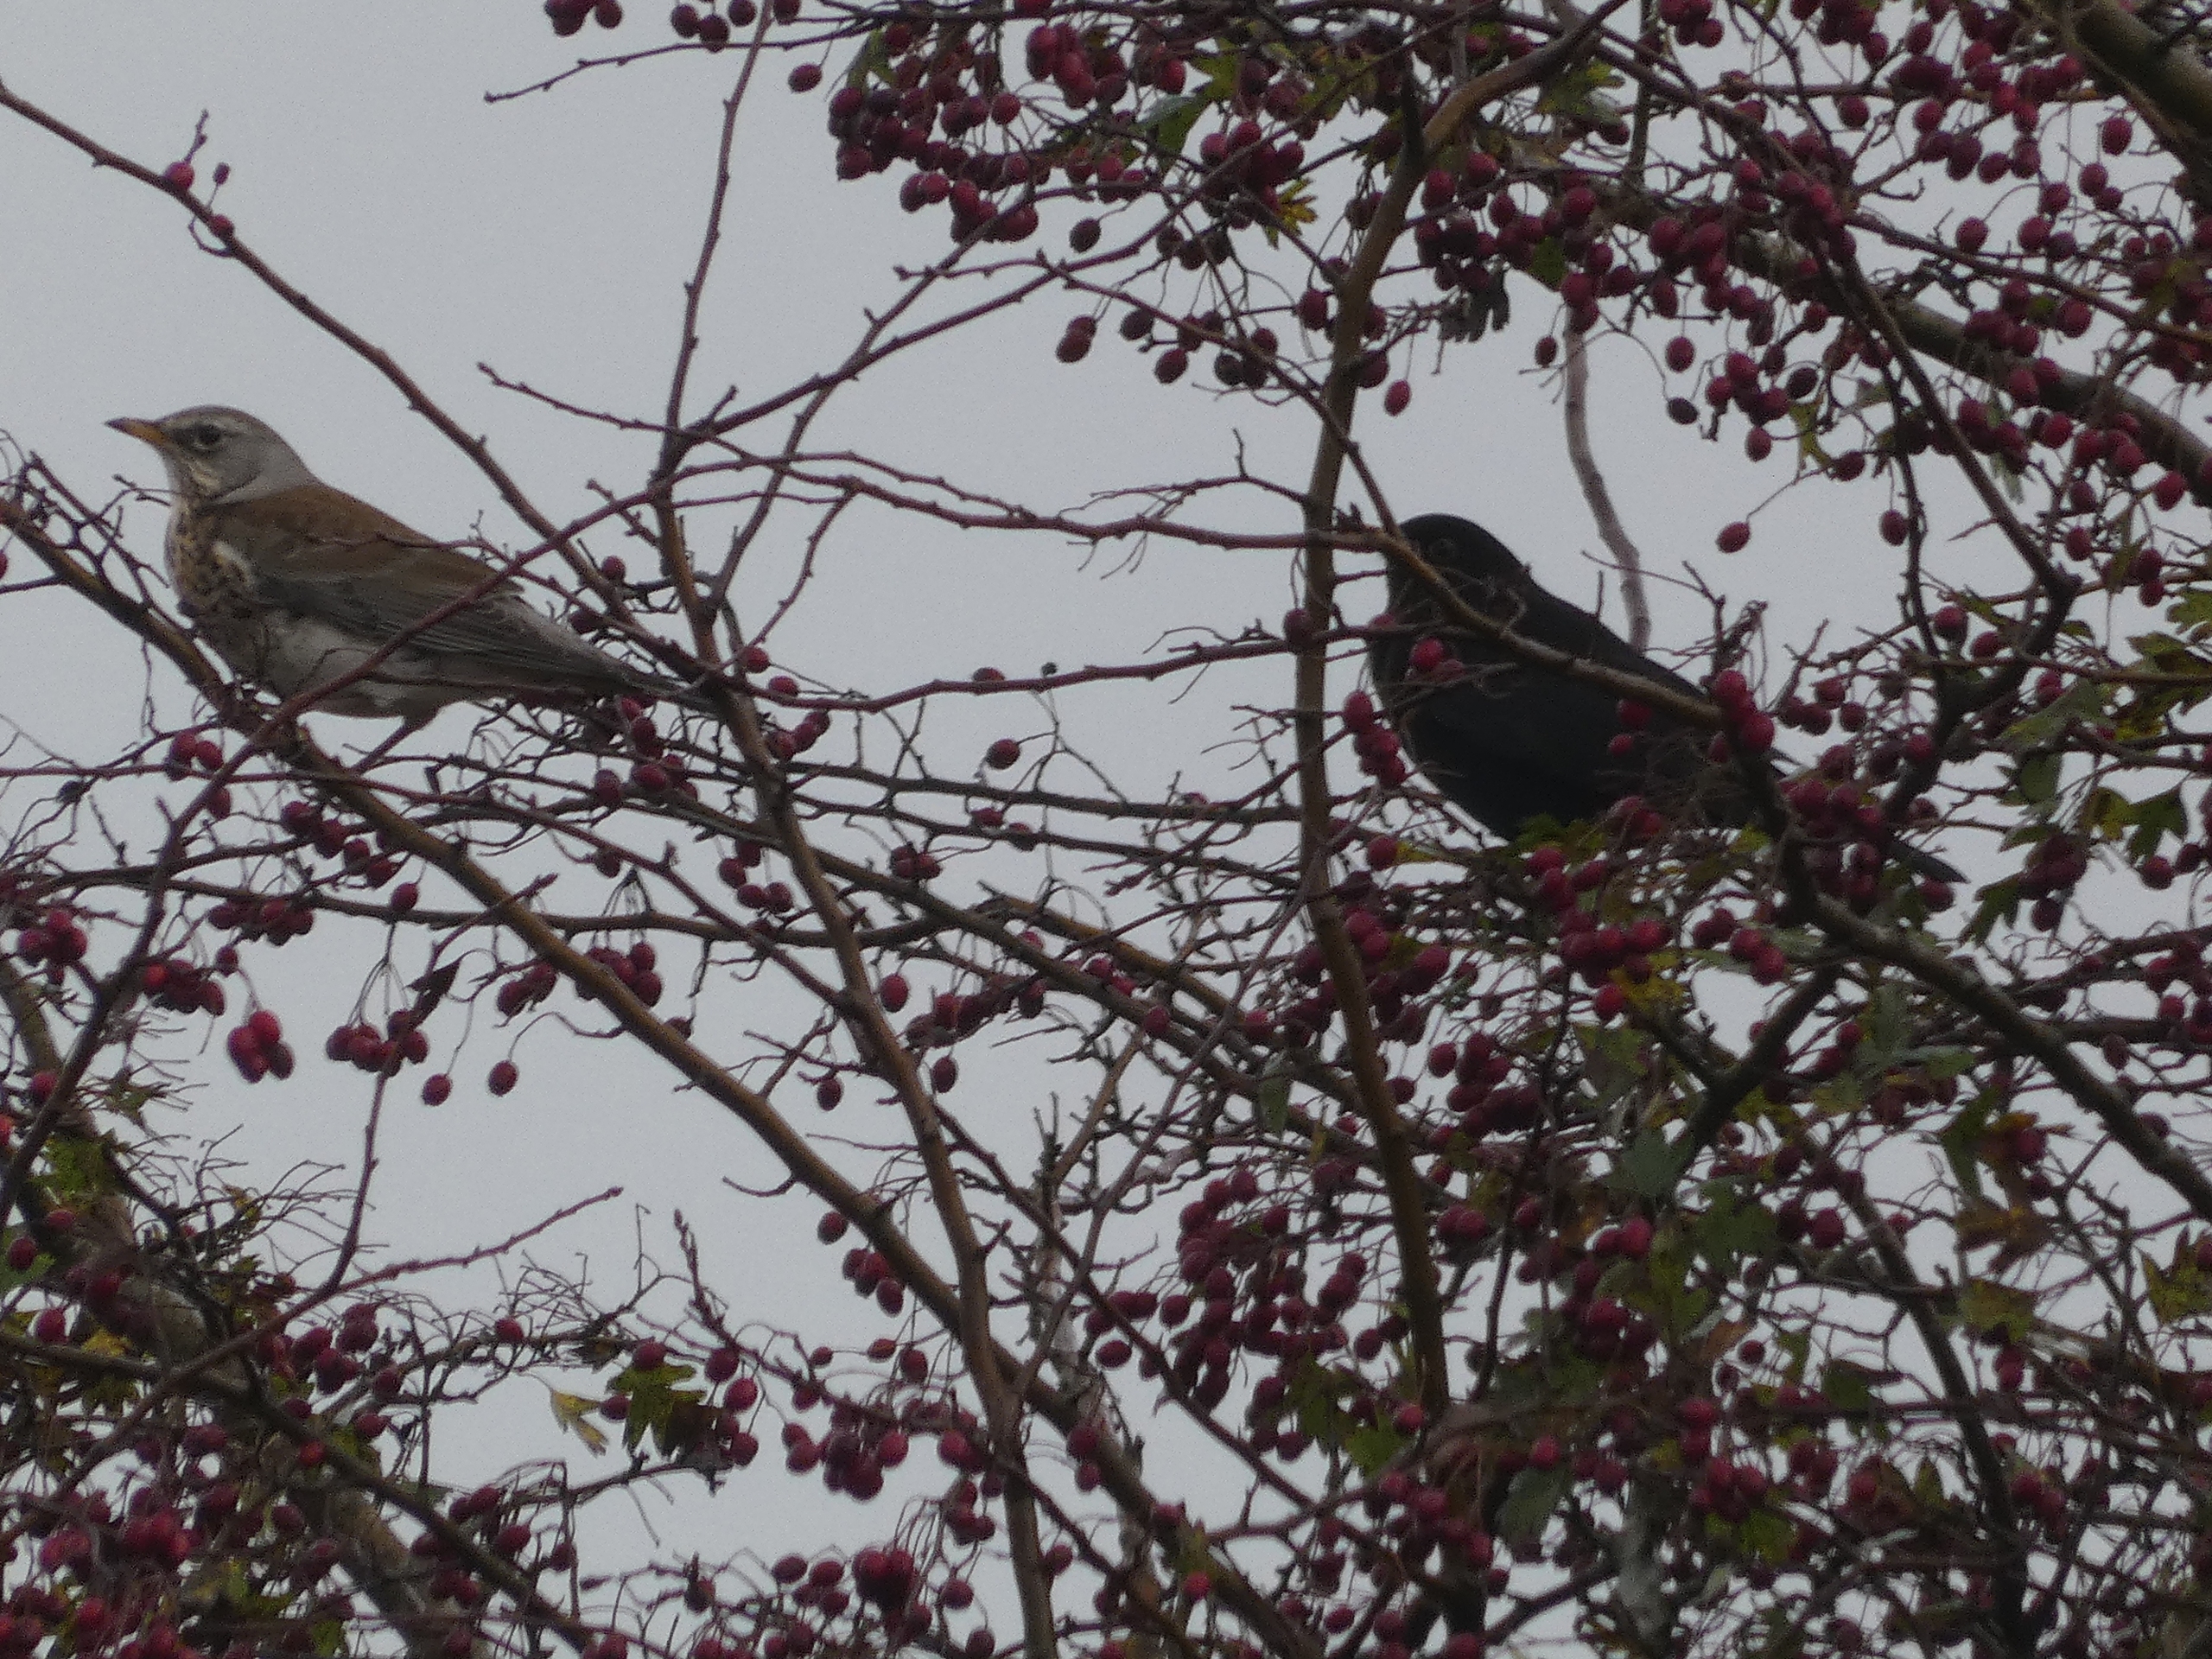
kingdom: Animalia
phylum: Chordata
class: Aves
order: Passeriformes
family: Turdidae
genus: Turdus
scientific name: Turdus pilaris
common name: Sjagger
